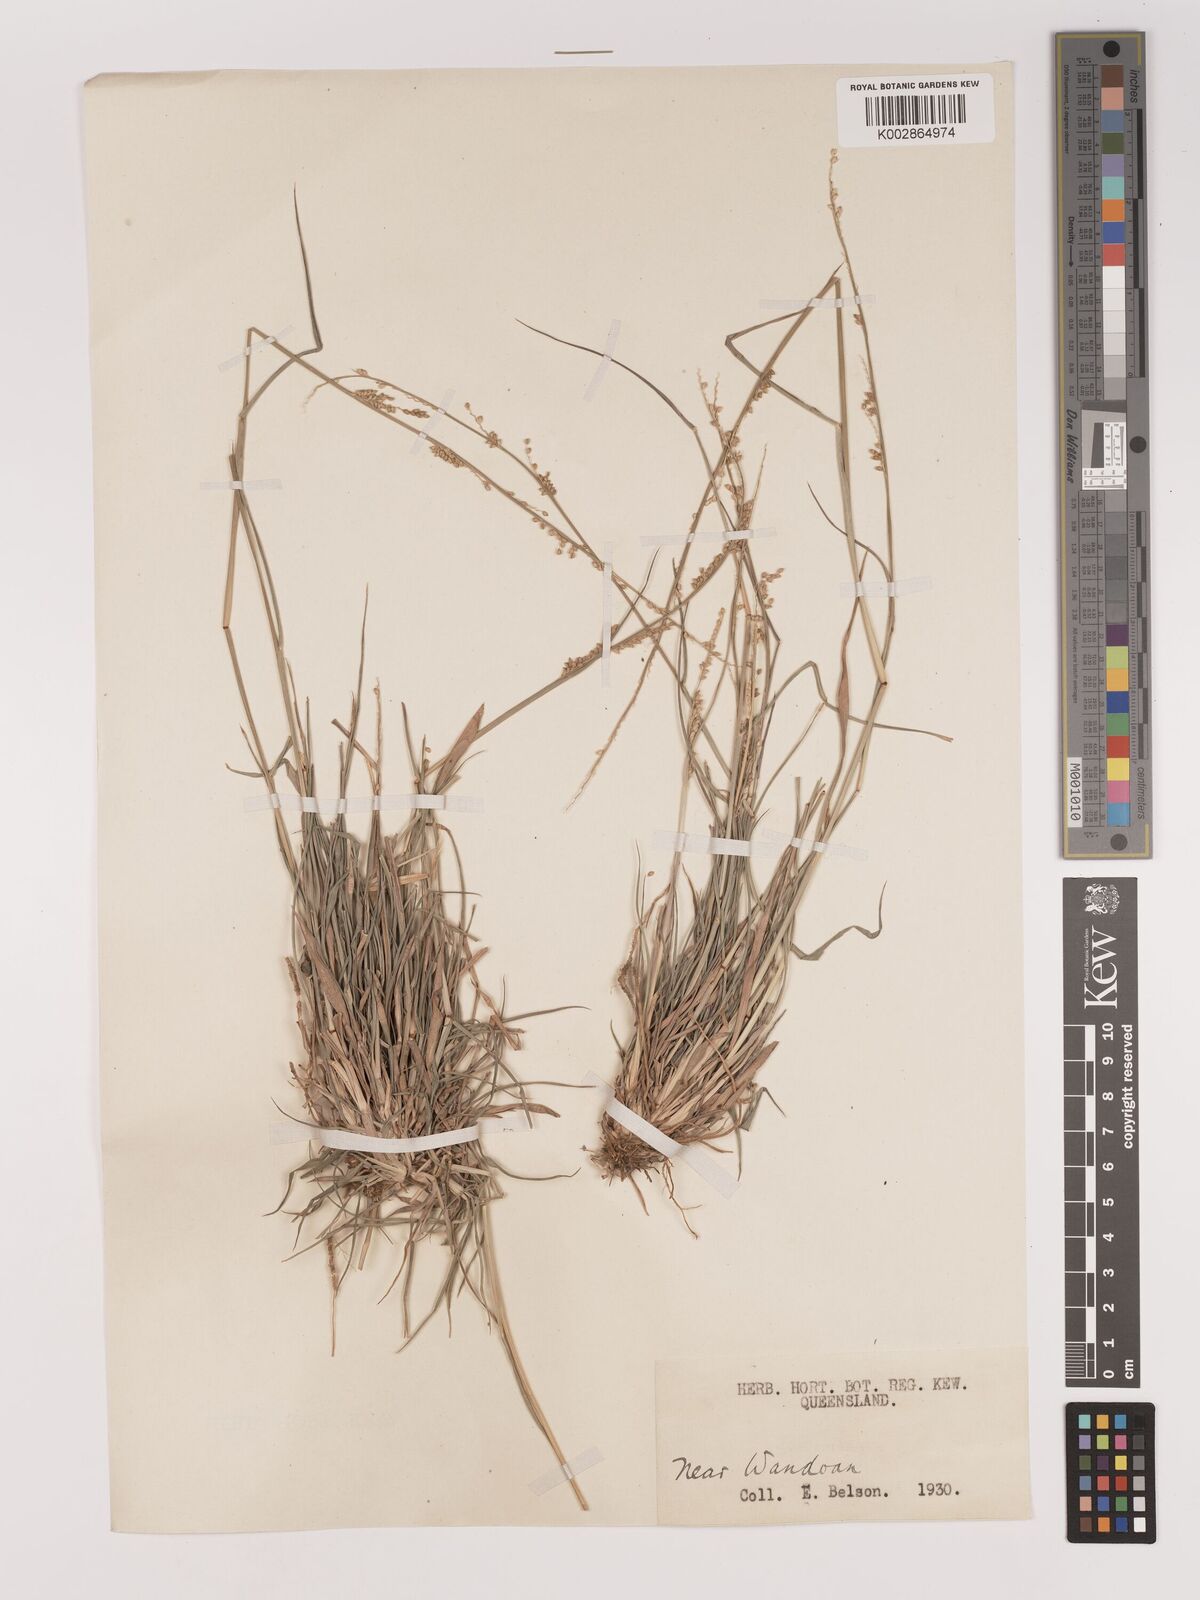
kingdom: Plantae
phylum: Tracheophyta
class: Liliopsida
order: Poales
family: Poaceae
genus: Setaria
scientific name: Setaria
